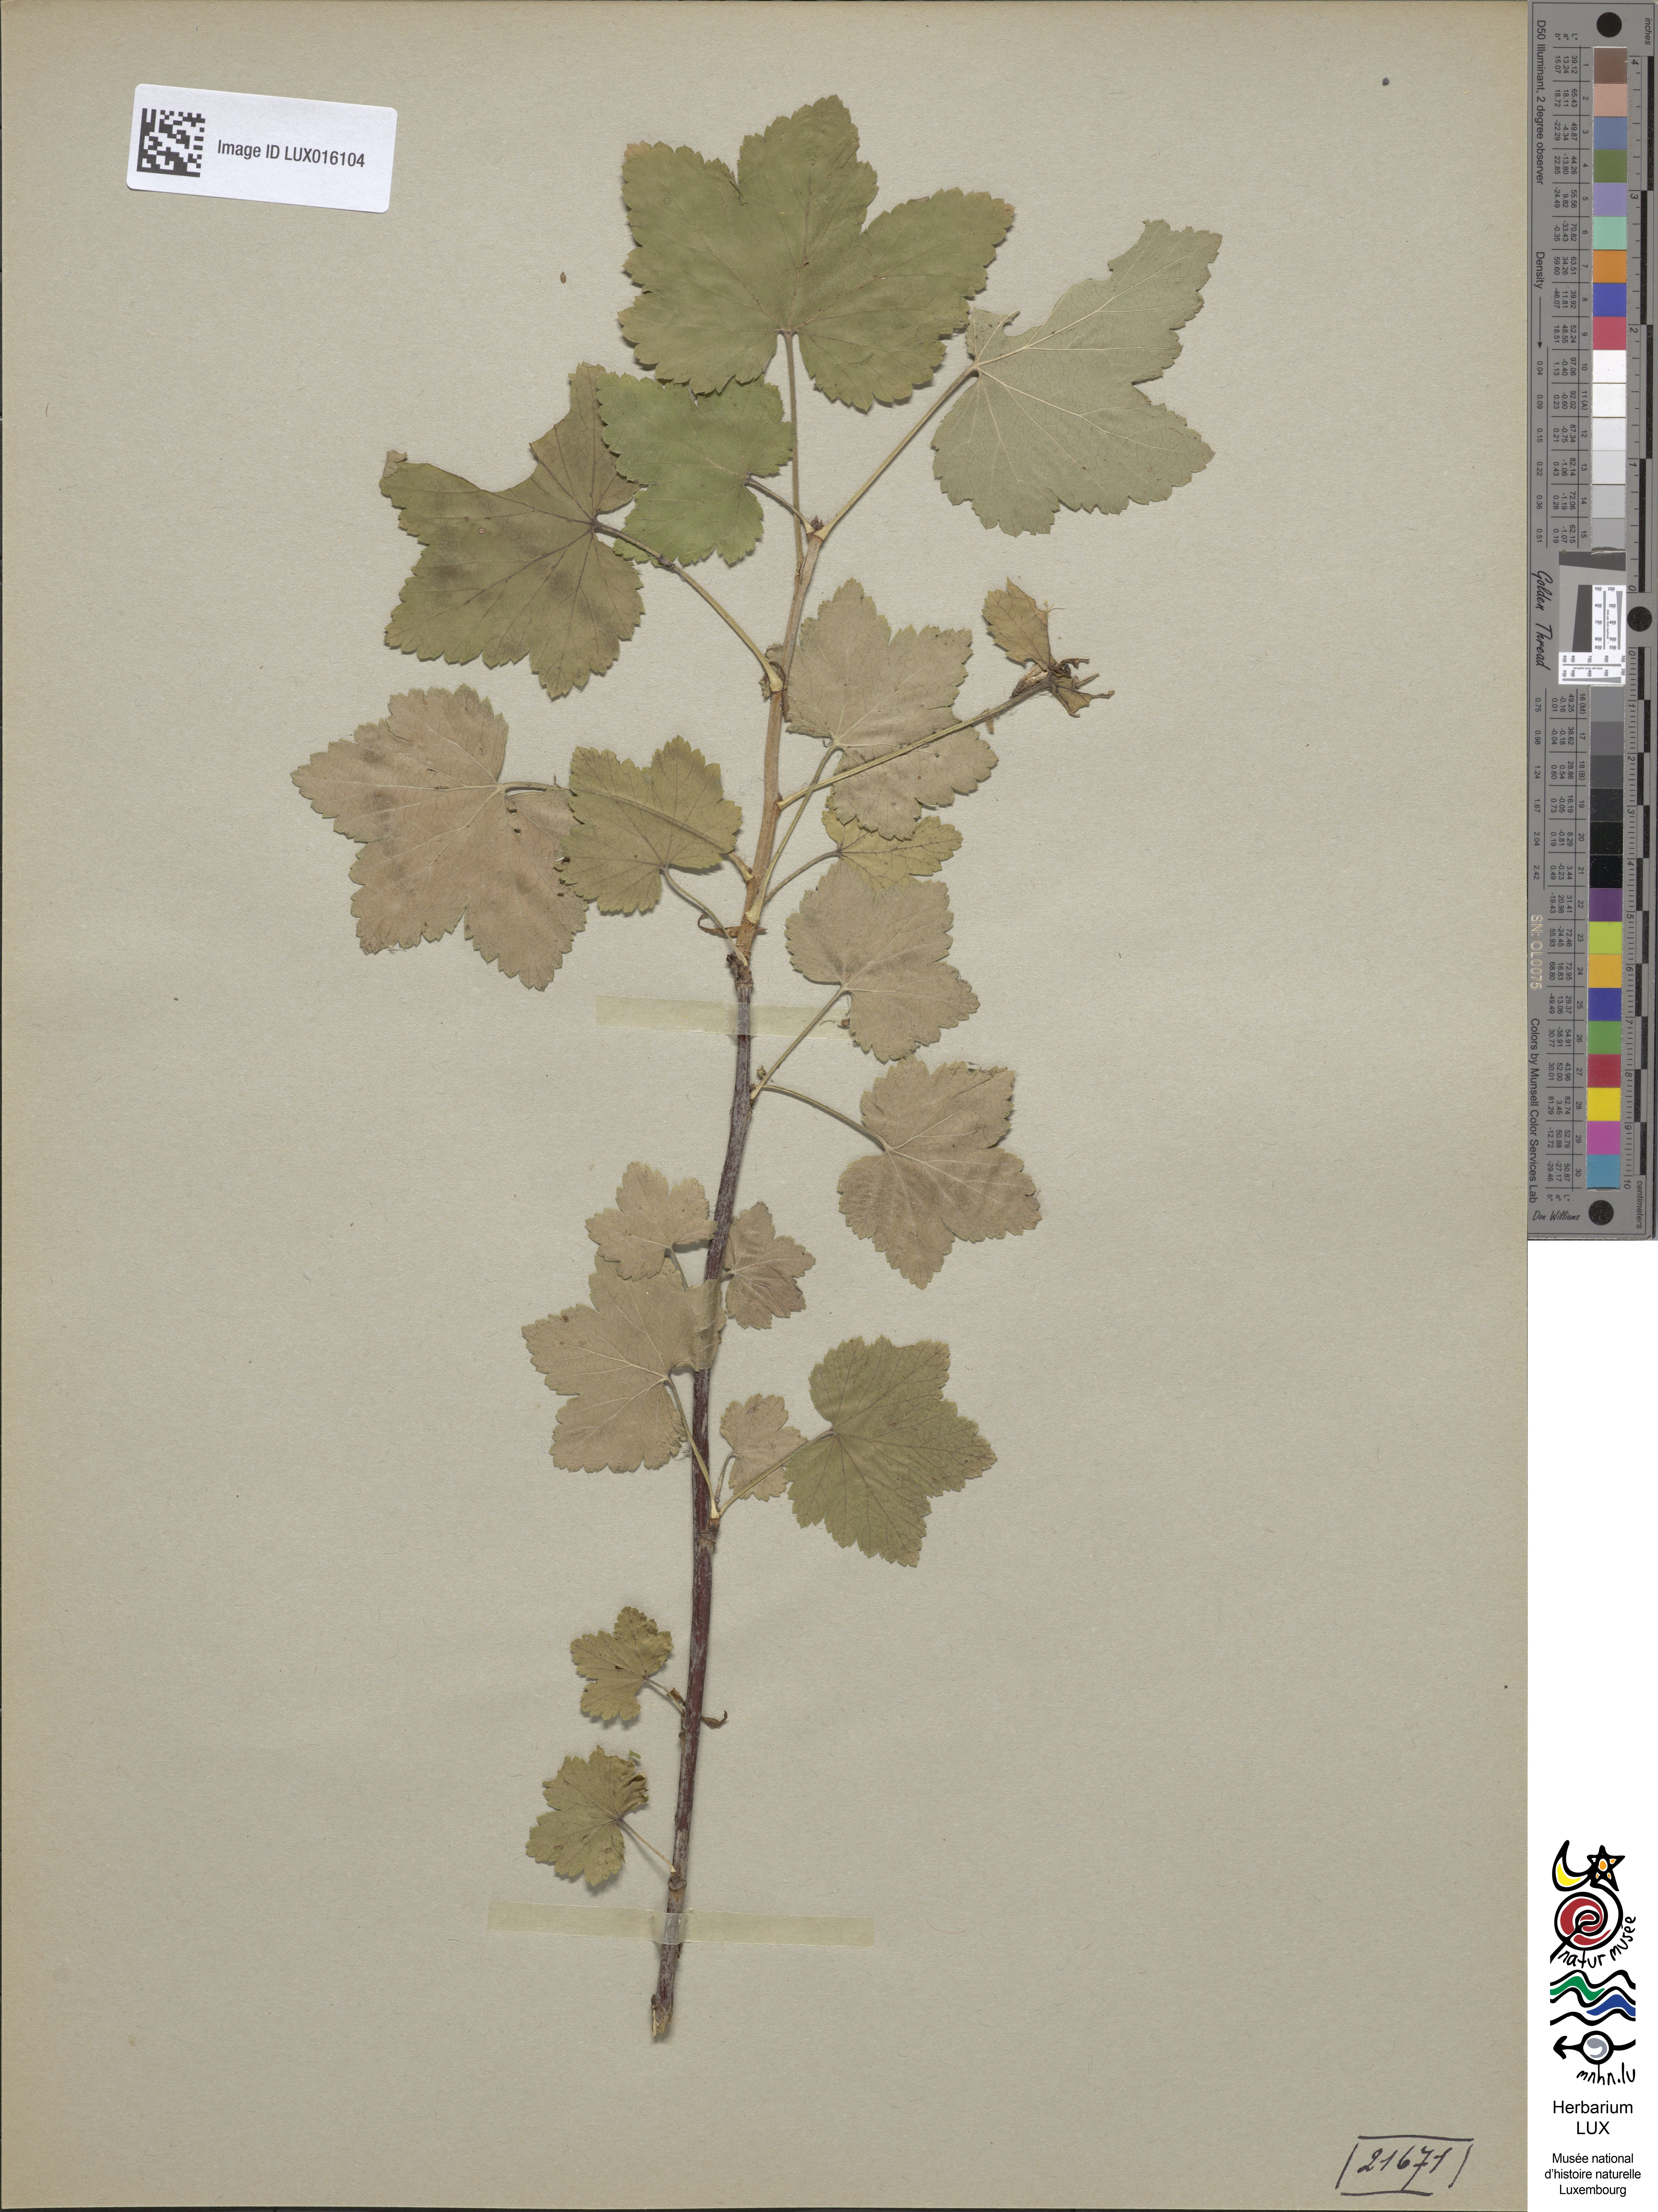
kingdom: Plantae
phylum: Tracheophyta
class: Magnoliopsida
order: Saxifragales
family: Grossulariaceae
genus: Ribes
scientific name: Ribes rubrum
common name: Red currant
